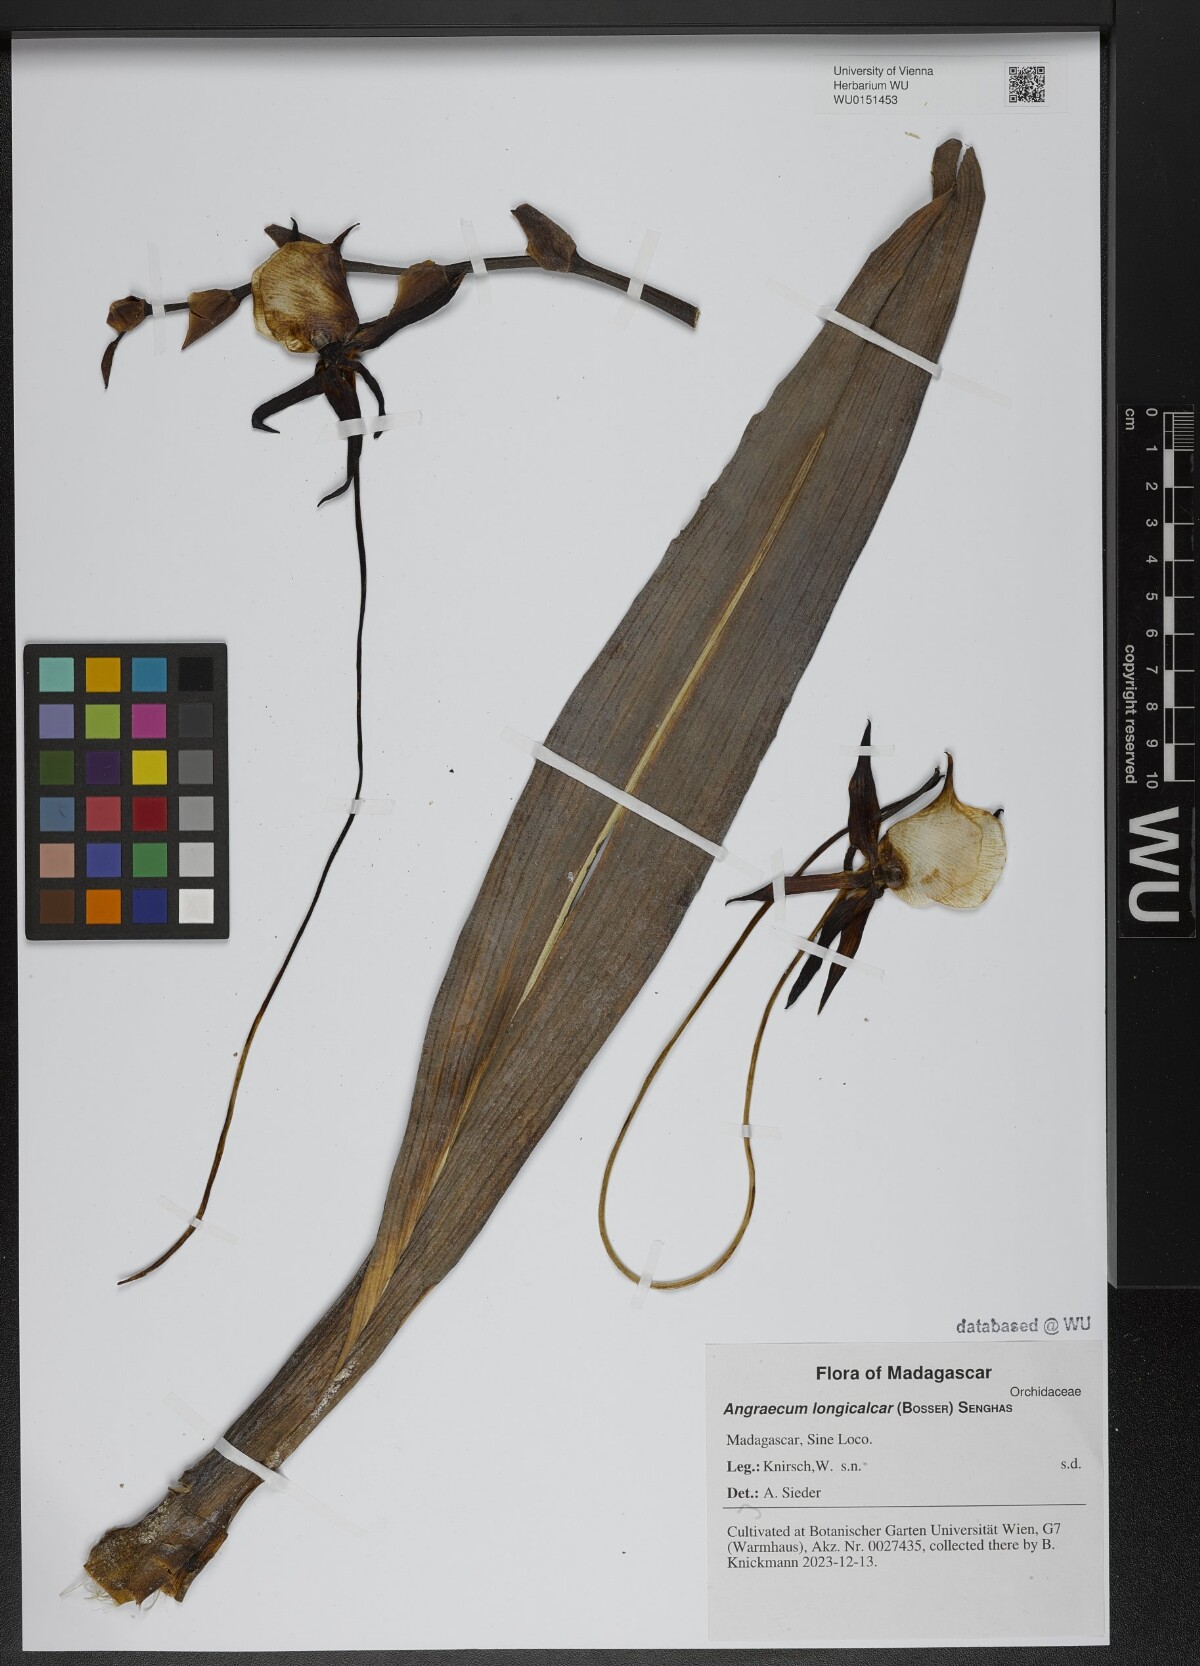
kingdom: Plantae
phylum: Tracheophyta
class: Liliopsida
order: Asparagales
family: Orchidaceae
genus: Angraecum
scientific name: Angraecum longicalcar
